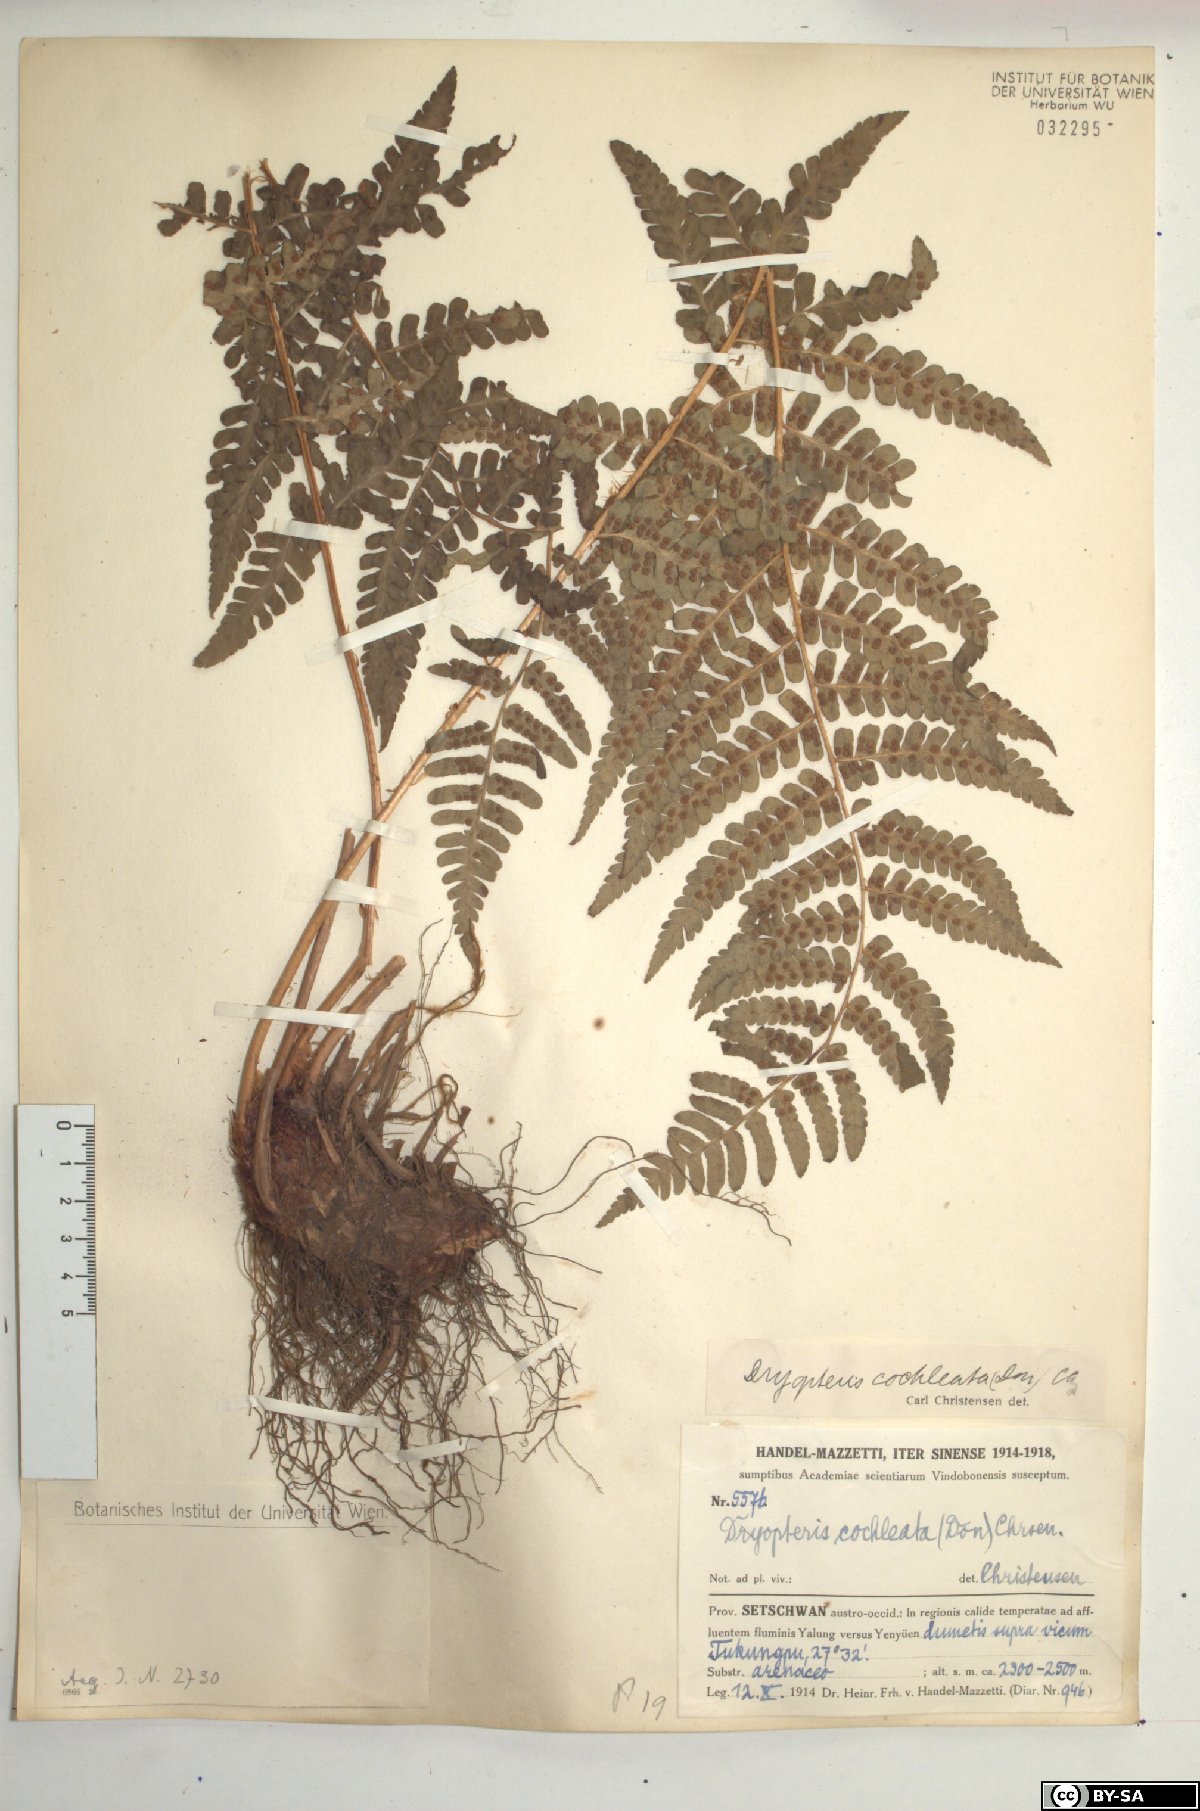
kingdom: Plantae
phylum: Tracheophyta
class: Polypodiopsida
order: Polypodiales
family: Dryopteridaceae
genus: Dryopteris
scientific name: Dryopteris cochleata
